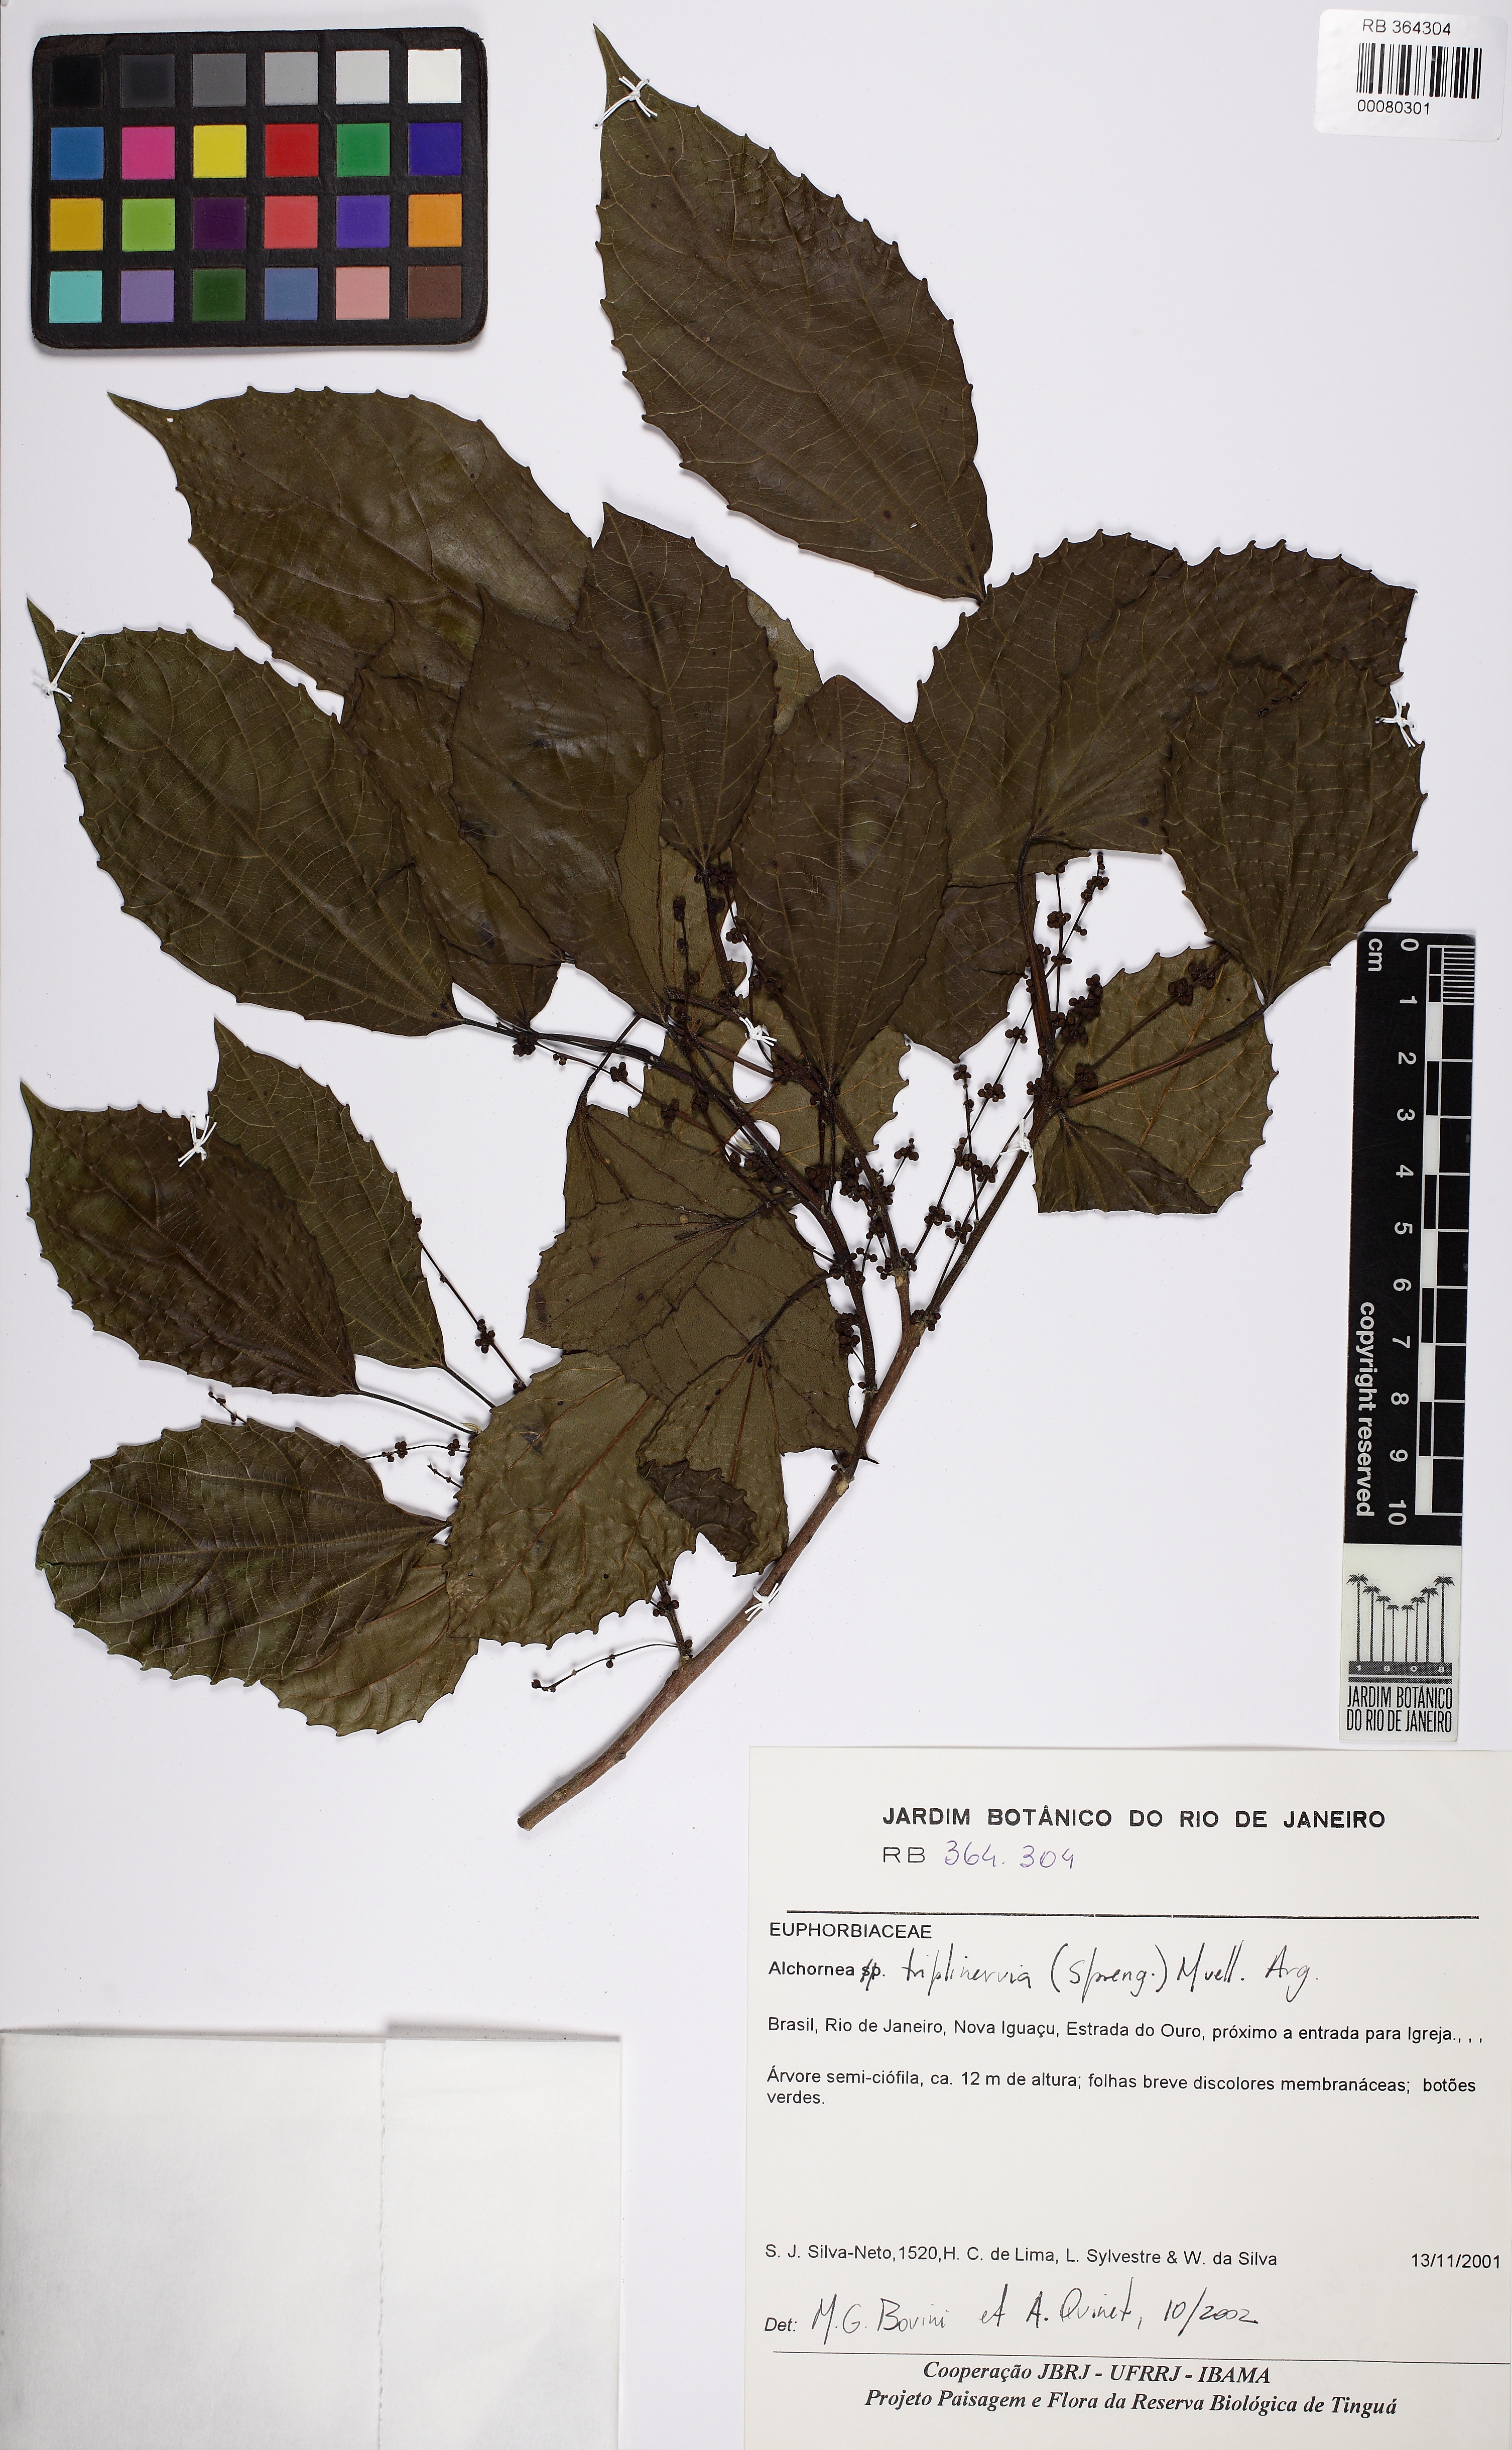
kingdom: Plantae
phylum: Tracheophyta
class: Magnoliopsida
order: Malpighiales
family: Euphorbiaceae
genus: Alchornea
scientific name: Alchornea triplinervia
